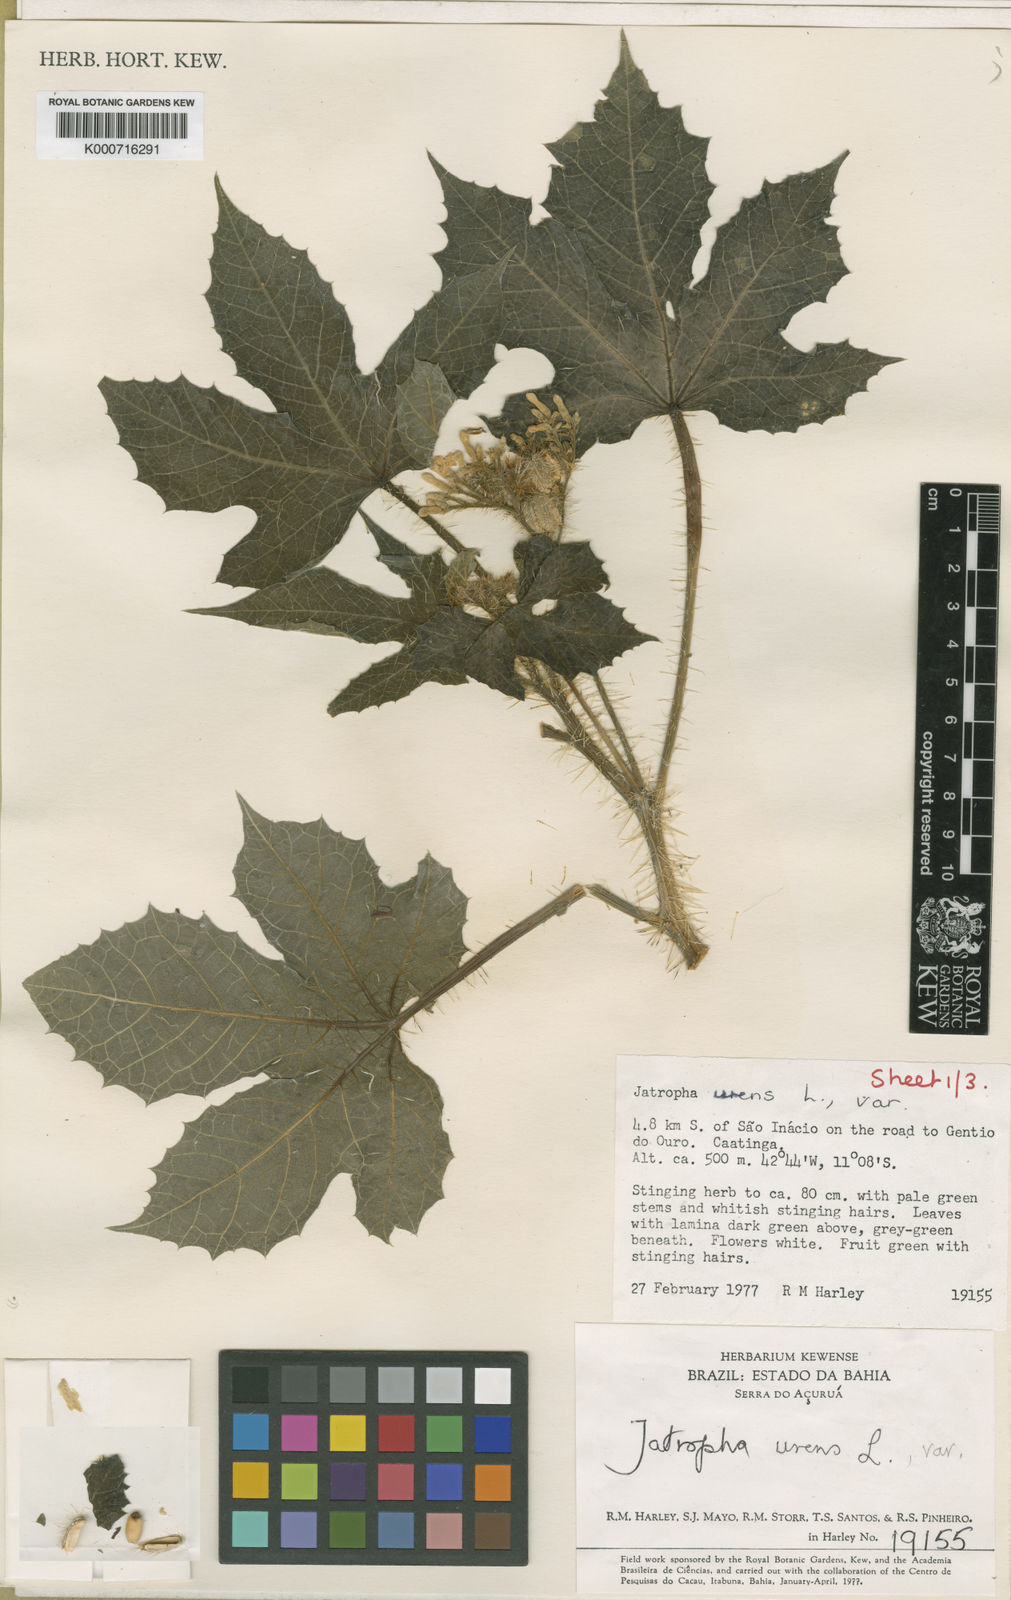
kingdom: Plantae
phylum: Tracheophyta
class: Magnoliopsida
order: Malpighiales
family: Euphorbiaceae
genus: Cnidoscolus
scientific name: Cnidoscolus urens
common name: Bull-nettle
